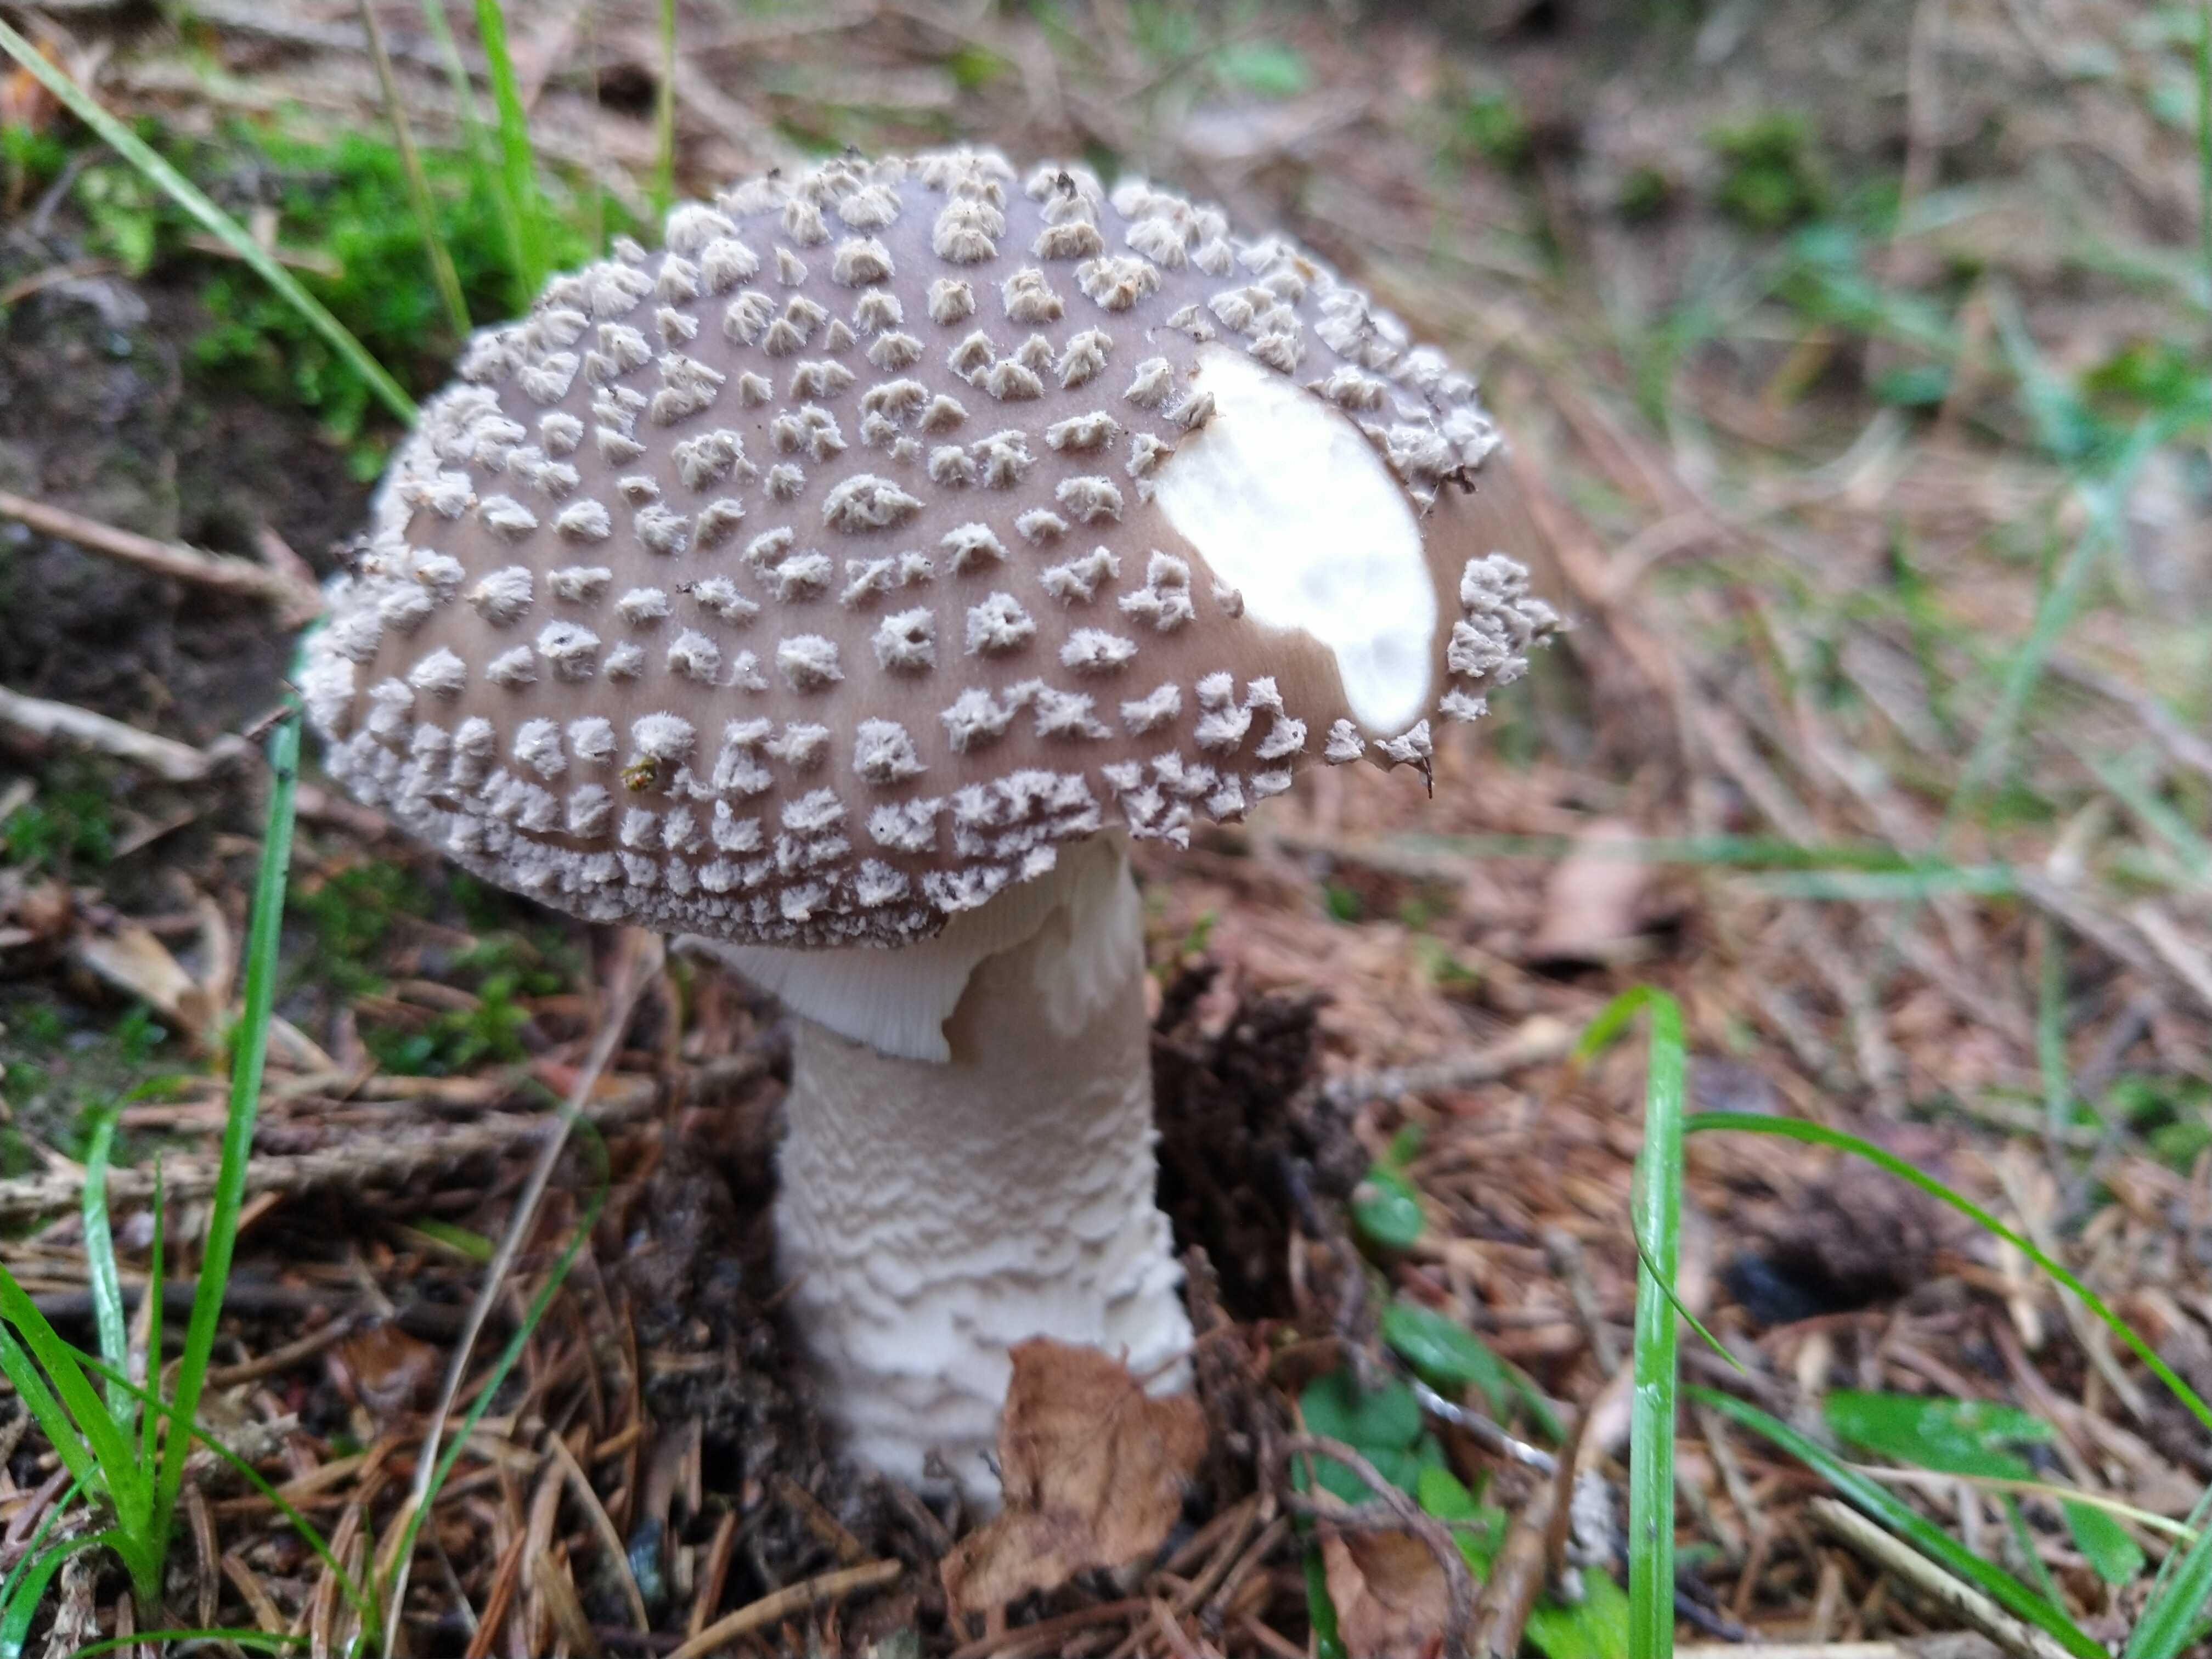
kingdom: Fungi
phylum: Basidiomycota
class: Agaricomycetes
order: Agaricales
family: Amanitaceae
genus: Amanita
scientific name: Amanita
